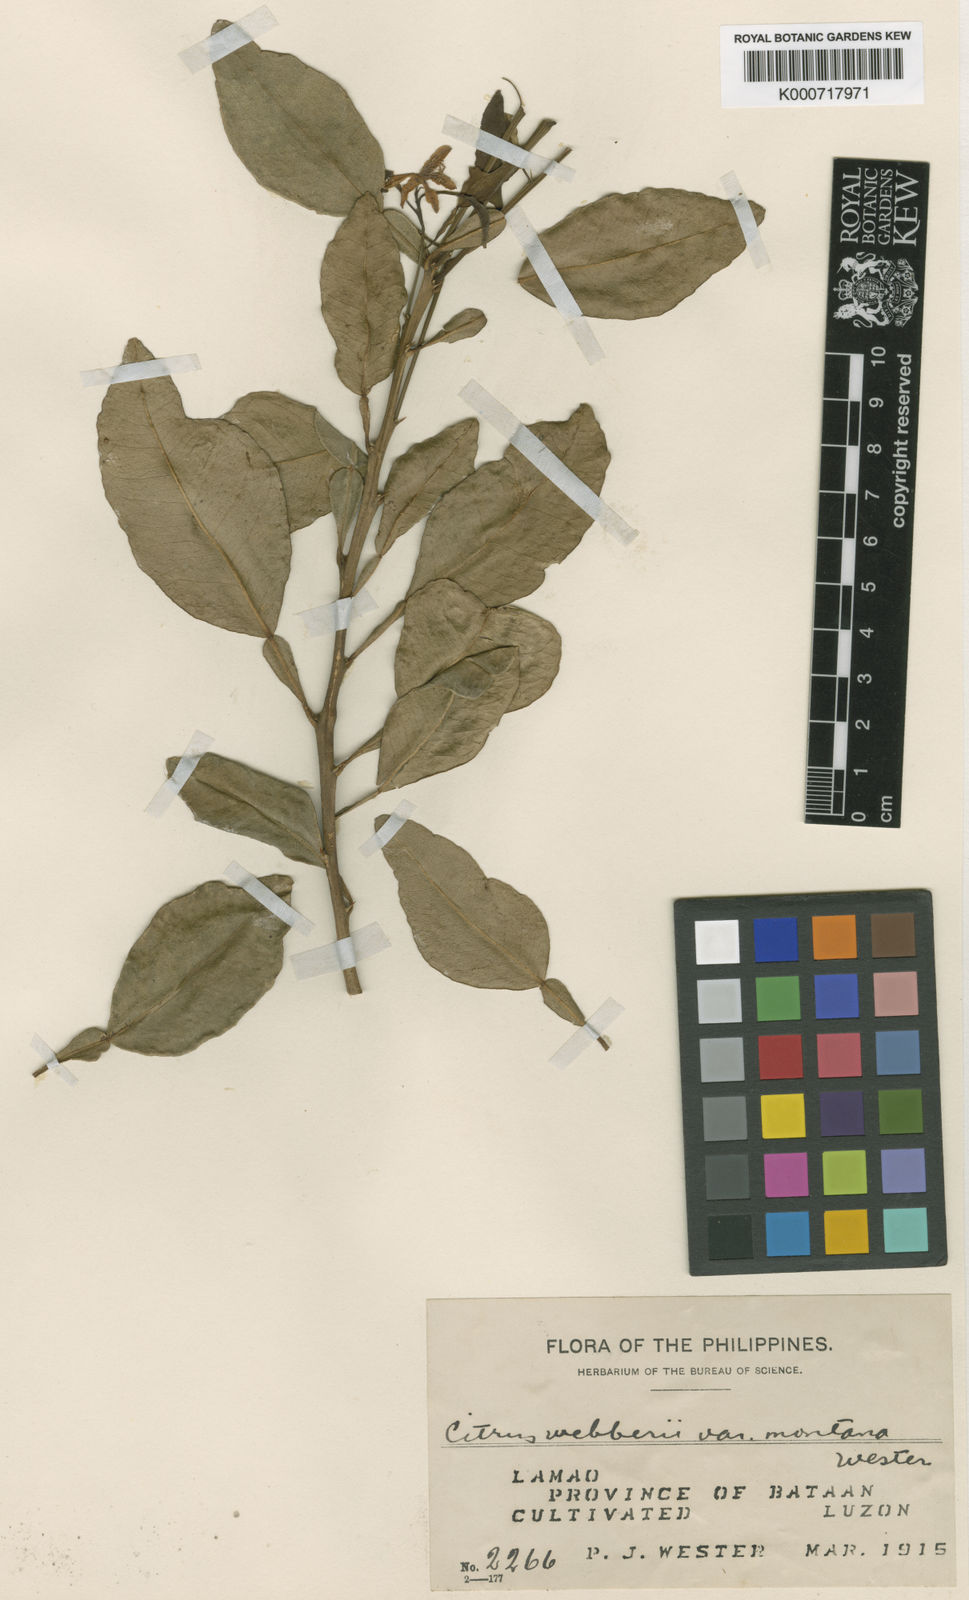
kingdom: Plantae
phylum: Tracheophyta
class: Magnoliopsida
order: Sapindales
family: Rutaceae
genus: Citrus
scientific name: Citrus webberi
